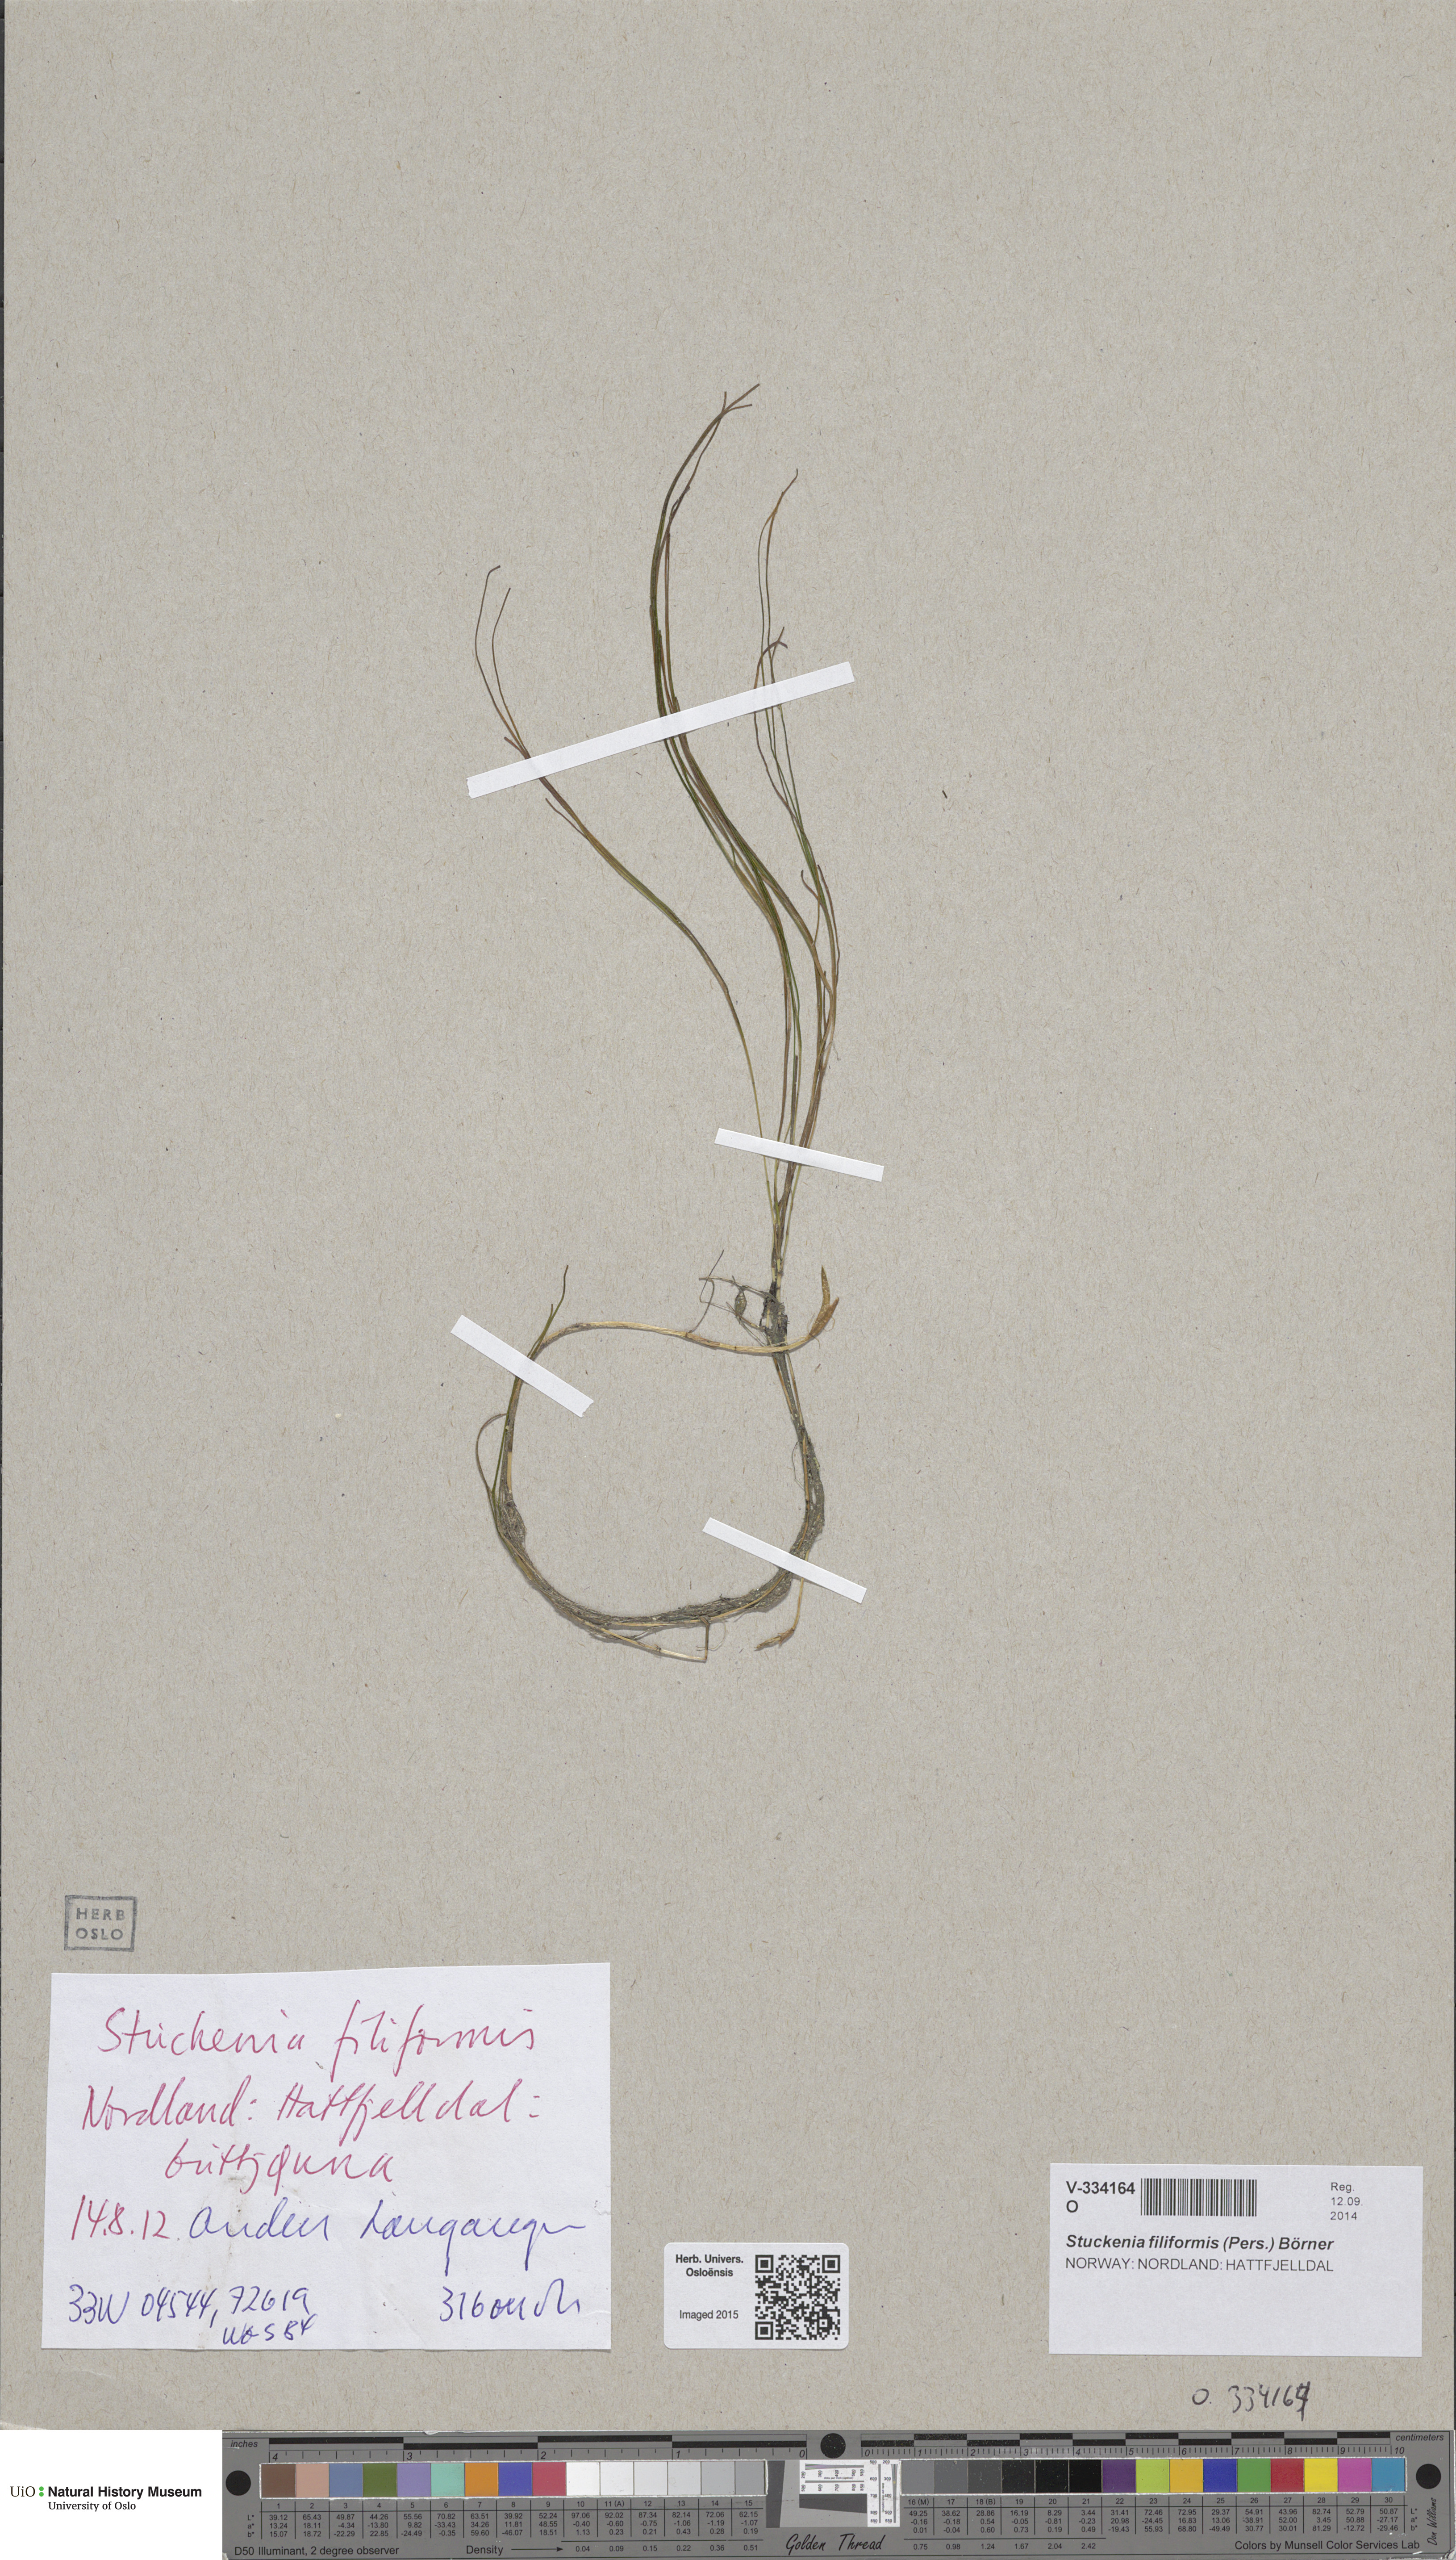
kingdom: Plantae
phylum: Tracheophyta
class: Liliopsida
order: Alismatales
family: Potamogetonaceae
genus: Stuckenia
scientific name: Stuckenia filiformis
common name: Alpine thread-leaved pondweed
